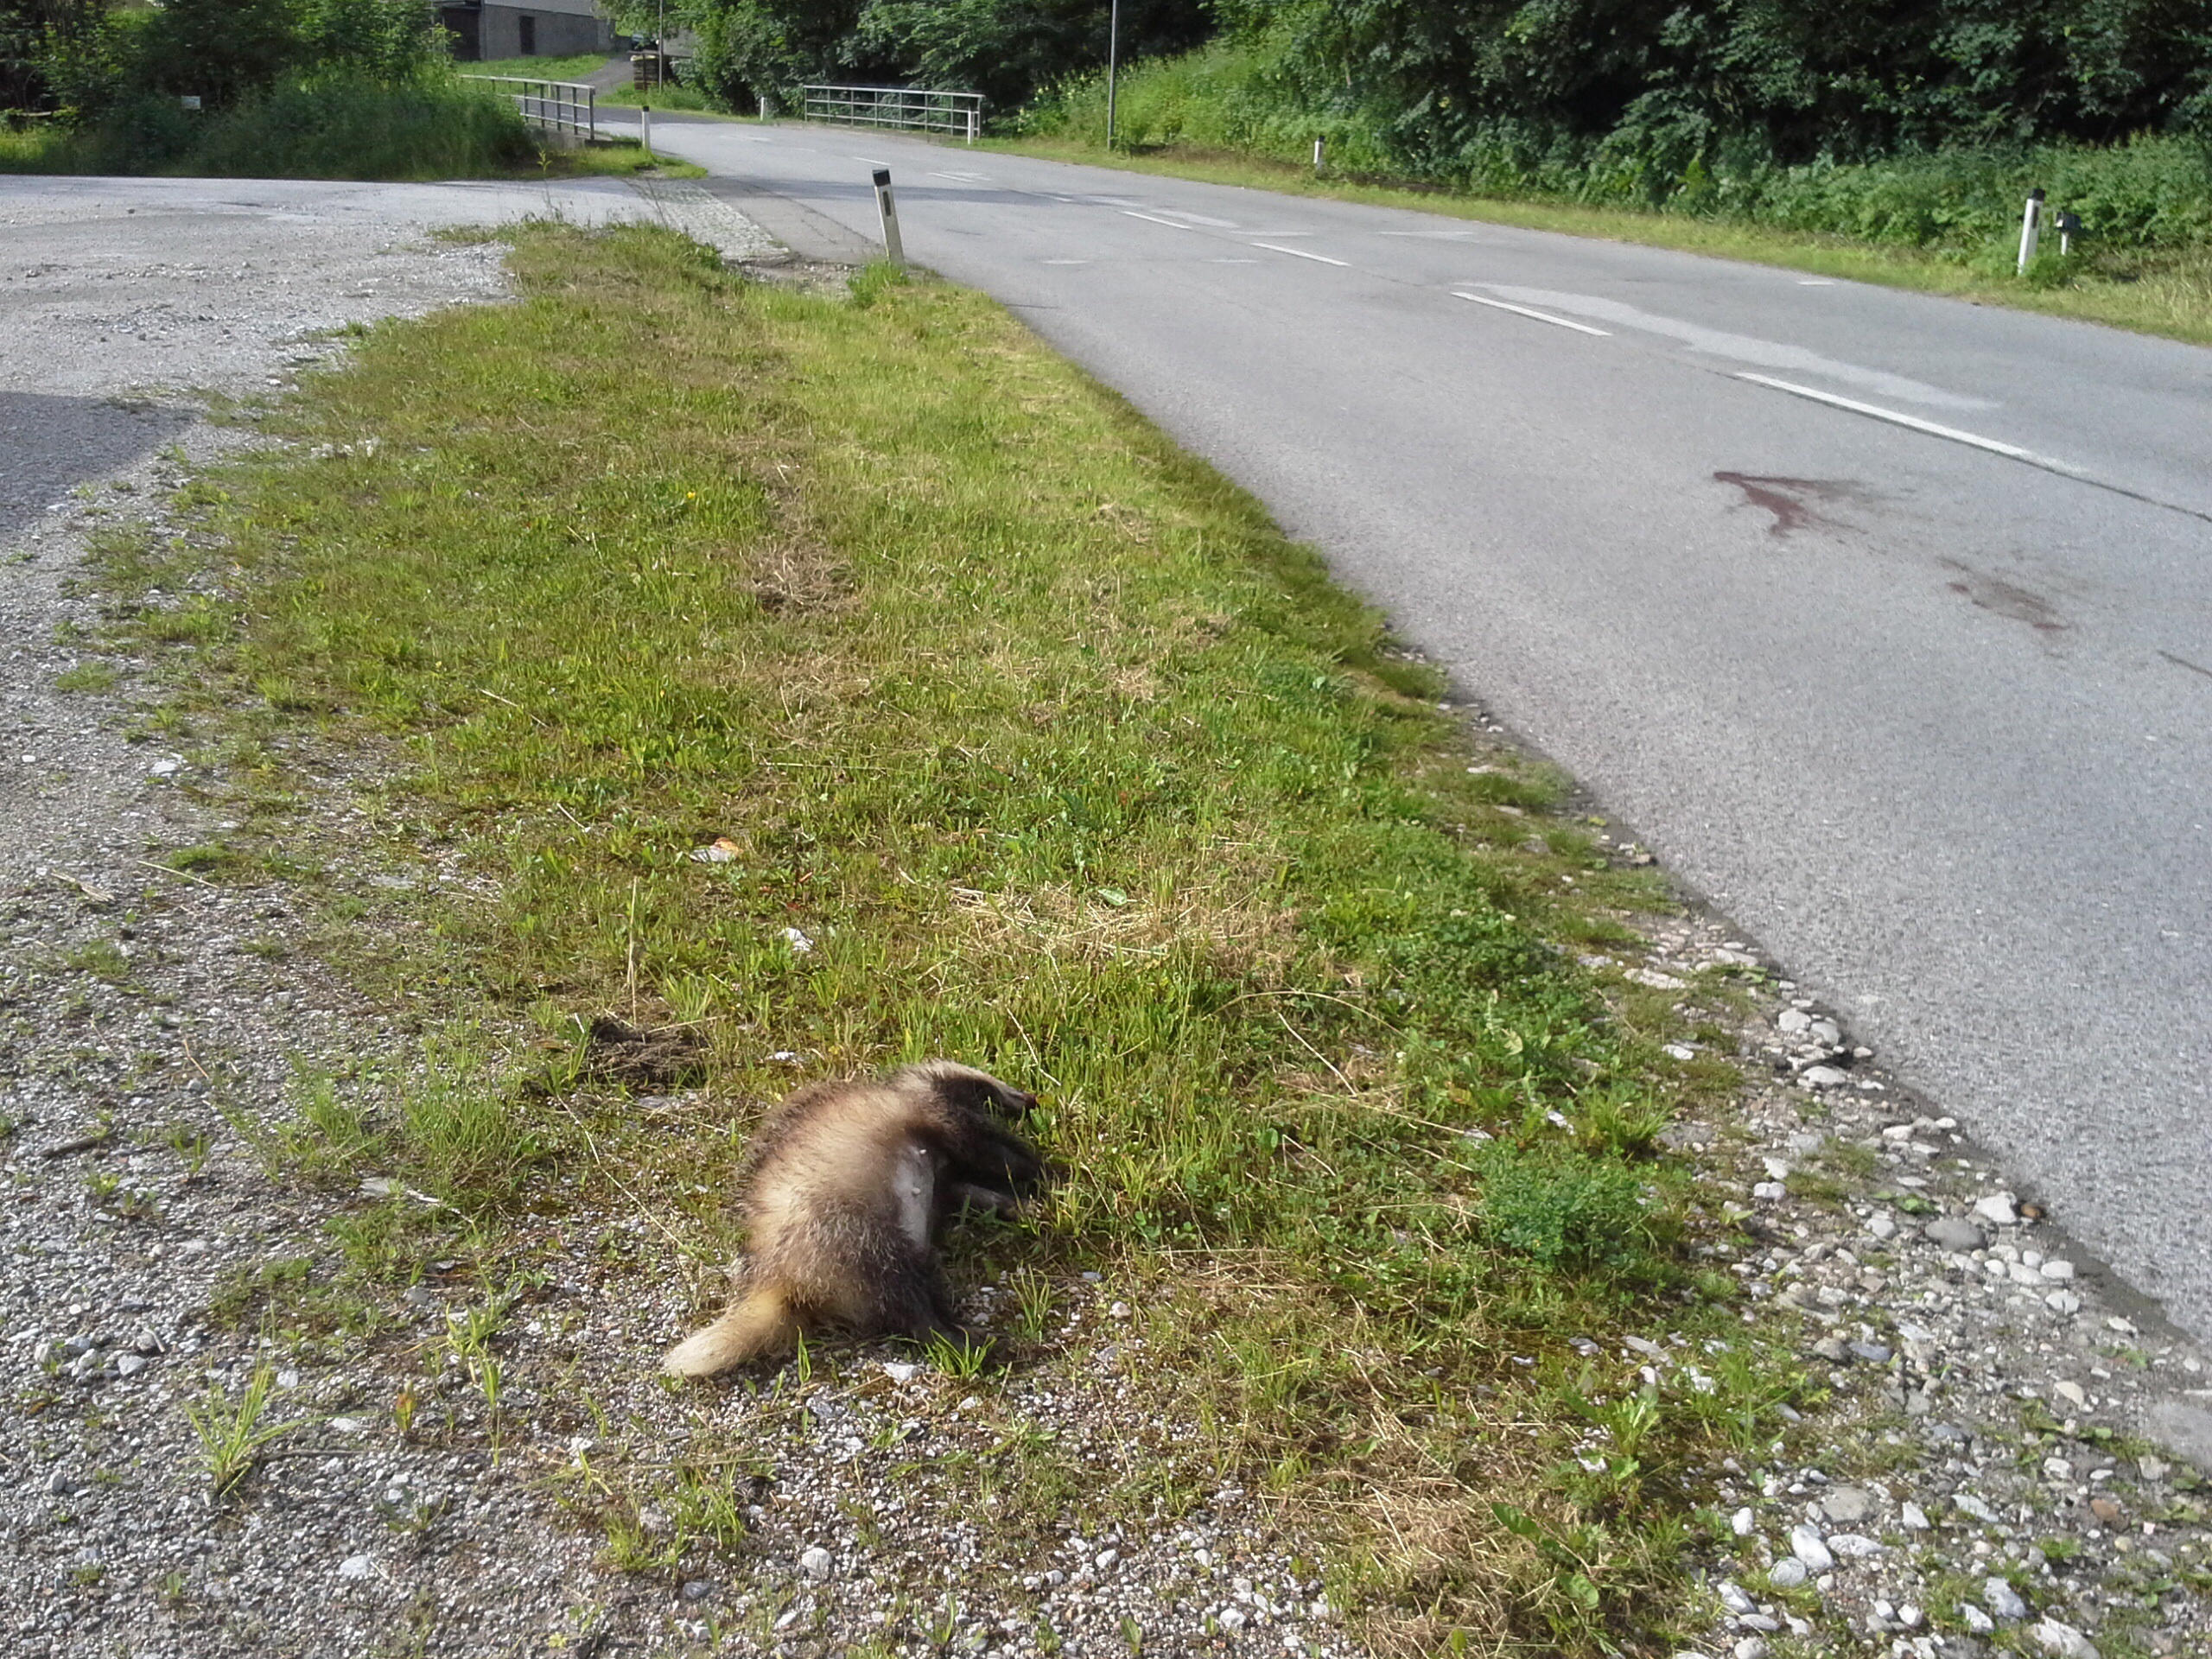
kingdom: Animalia
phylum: Chordata
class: Mammalia
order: Carnivora
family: Mustelidae
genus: Meles
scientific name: Meles meles
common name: Eurasian badger
